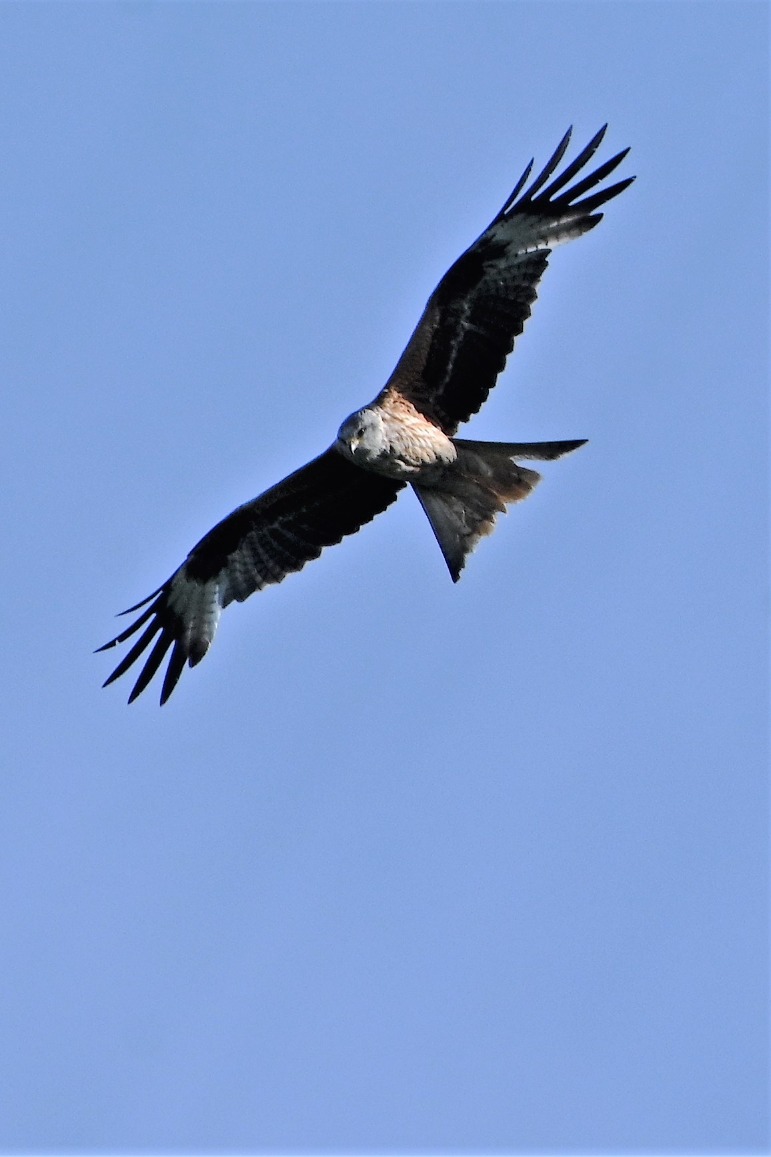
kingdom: Animalia
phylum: Chordata
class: Aves
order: Accipitriformes
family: Accipitridae
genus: Milvus
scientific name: Milvus milvus
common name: Rød glente
